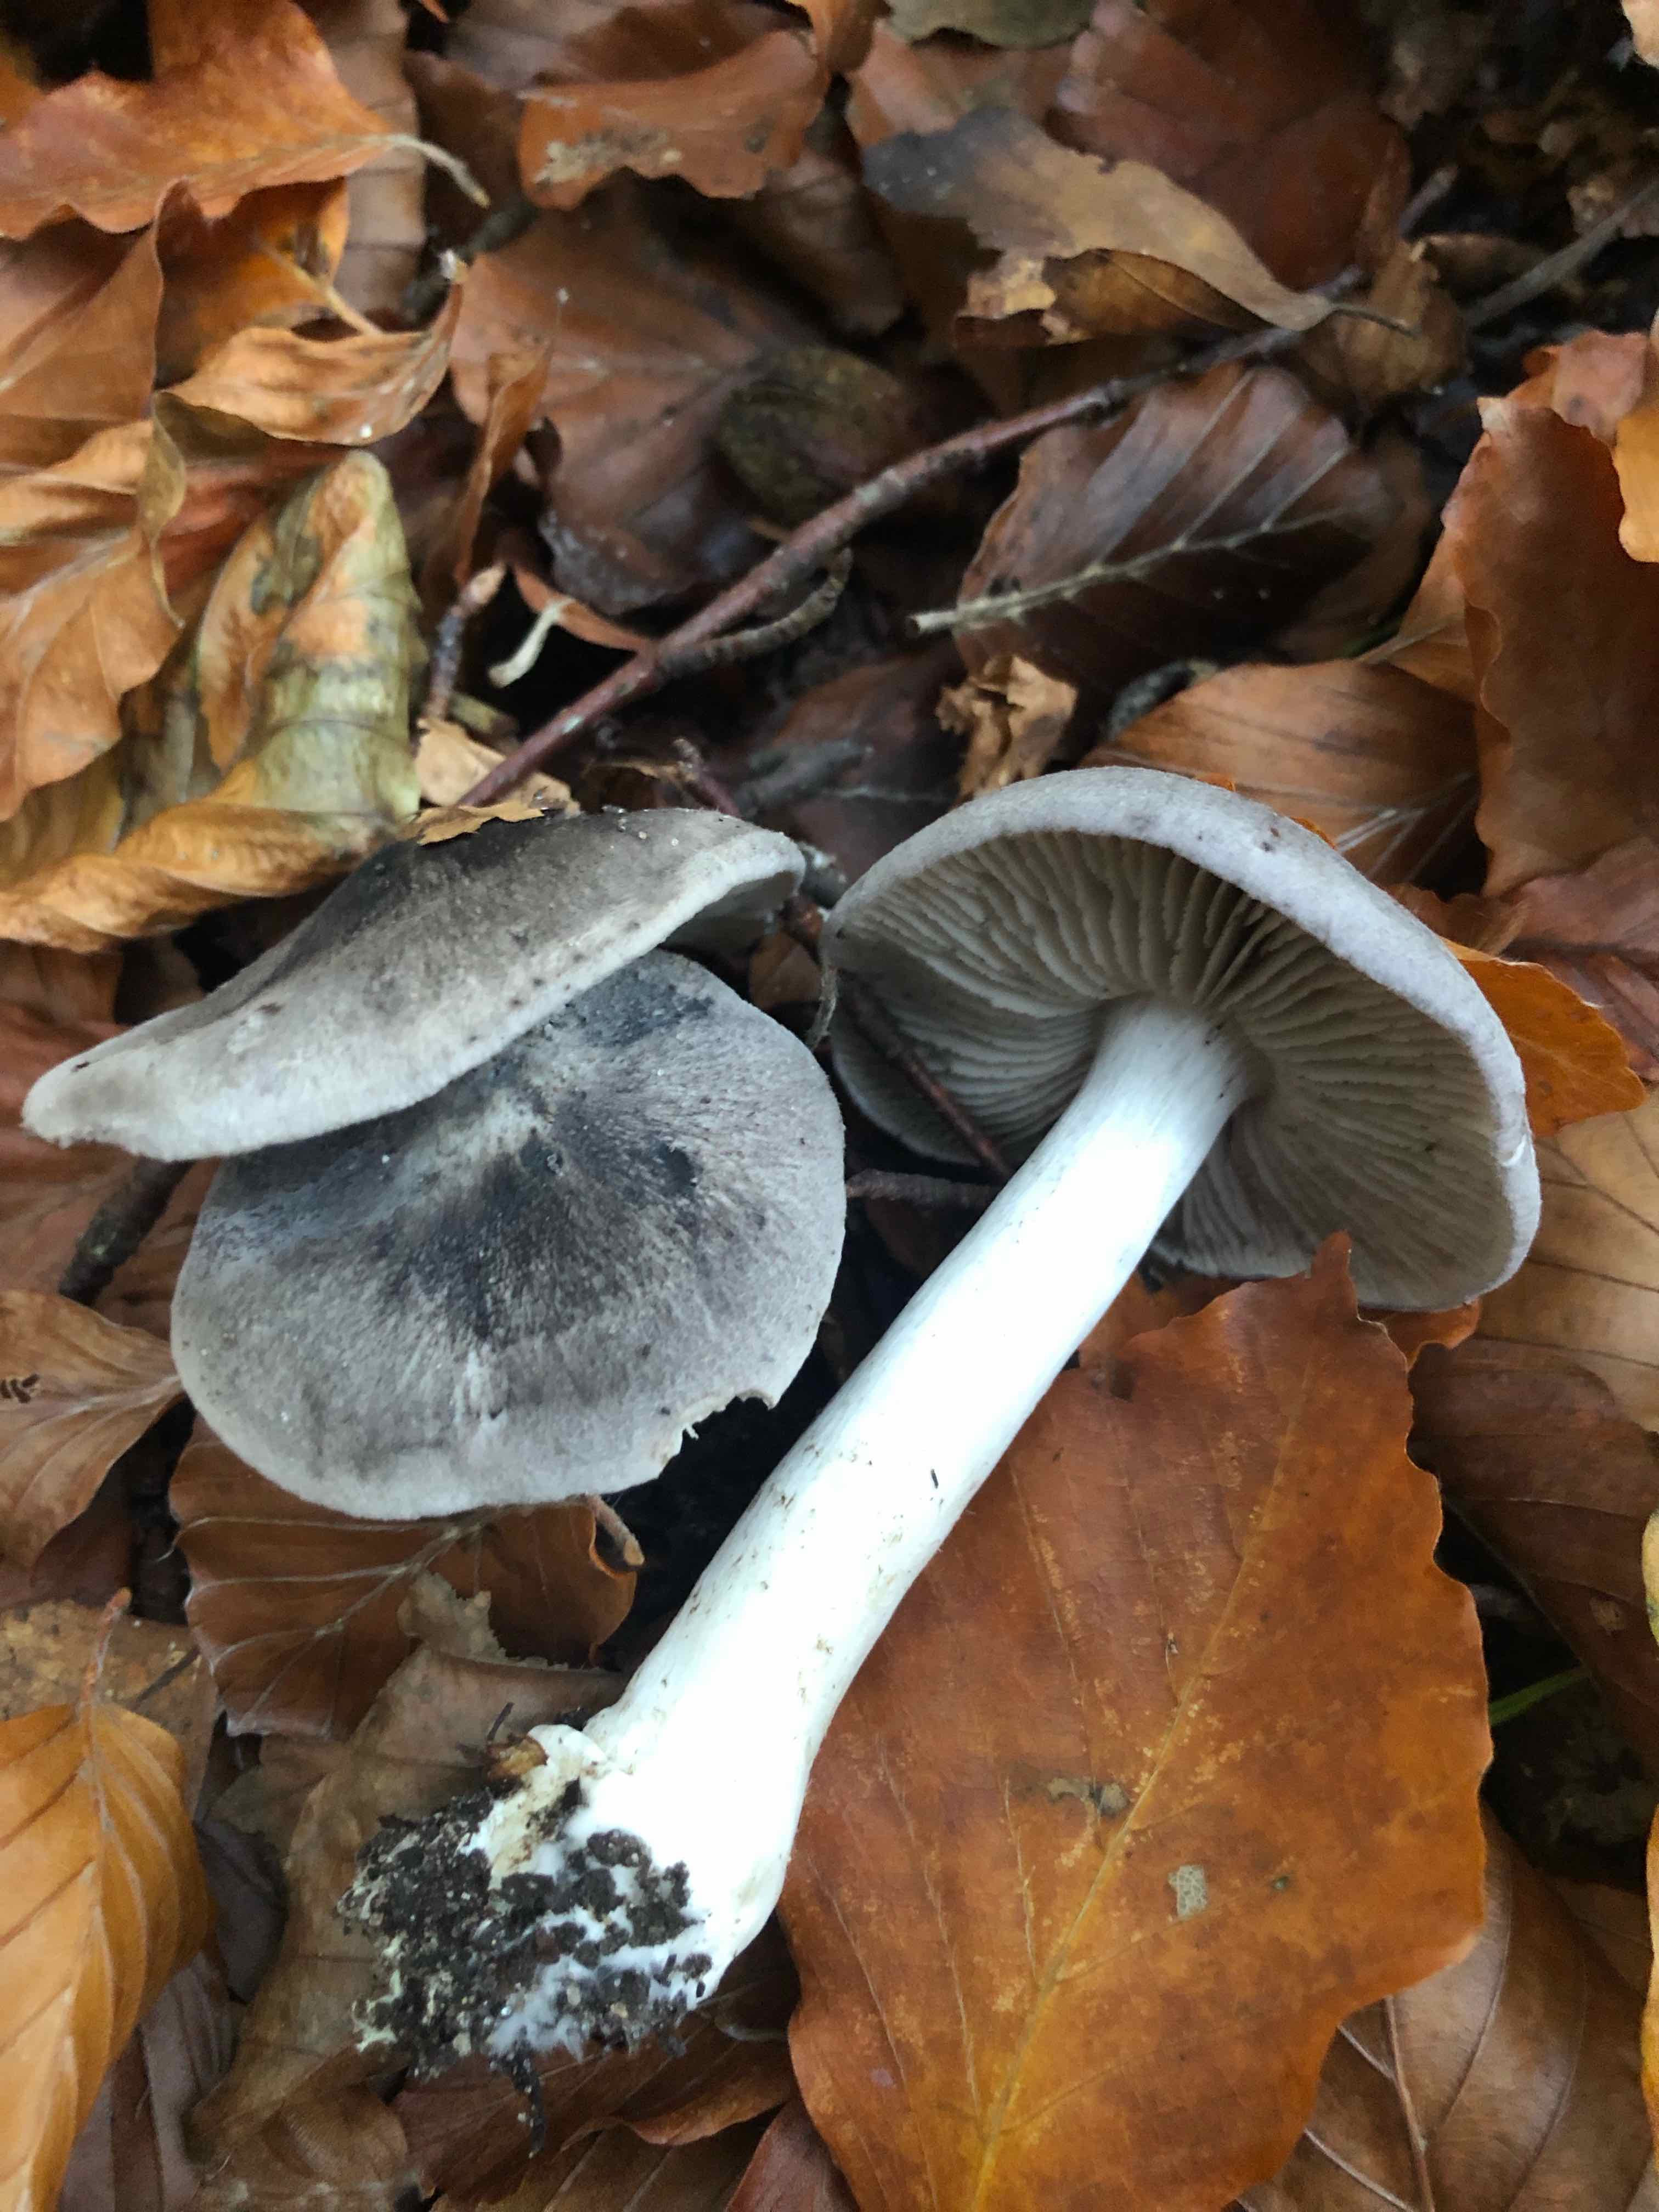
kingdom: Fungi
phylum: Basidiomycota
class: Agaricomycetes
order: Agaricales
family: Tricholomataceae
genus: Tricholoma
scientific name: Tricholoma sciodes
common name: stribet ridderhat
